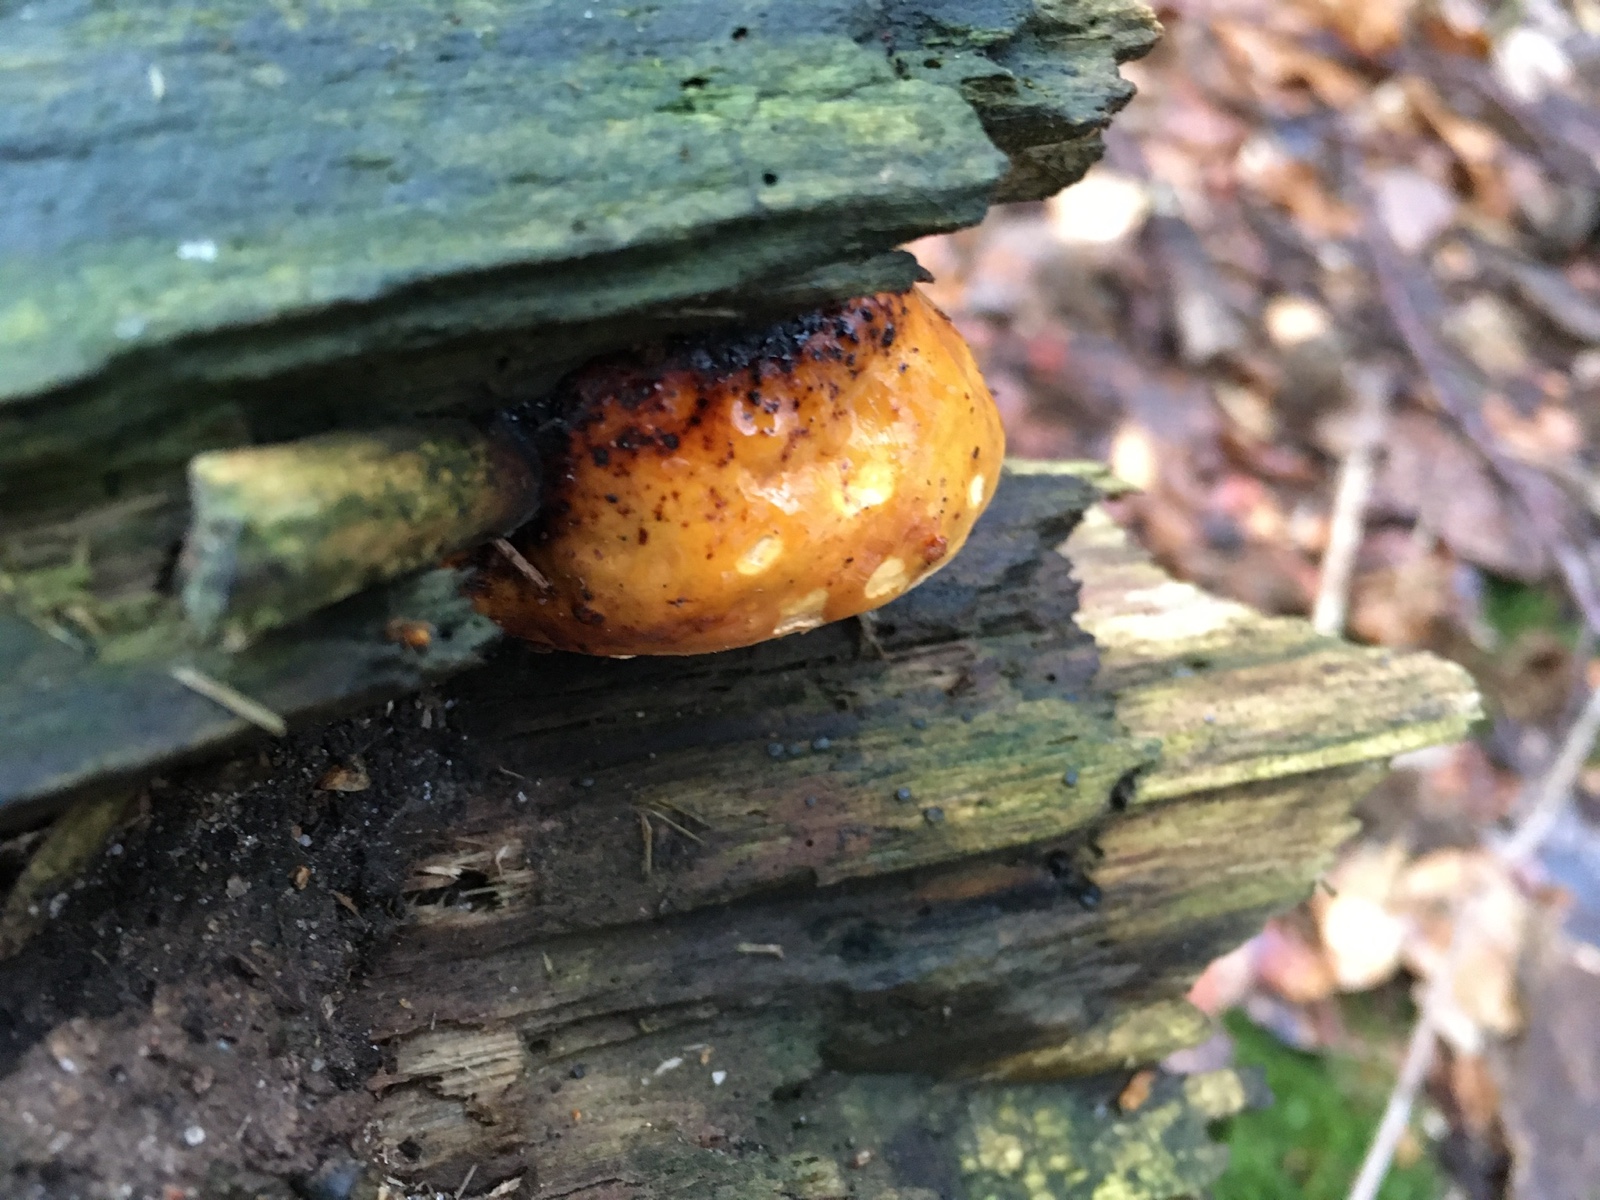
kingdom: Fungi
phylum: Basidiomycota
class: Agaricomycetes
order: Polyporales
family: Fomitopsidaceae
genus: Fomitopsis
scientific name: Fomitopsis pinicola
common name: randbæltet hovporesvamp
